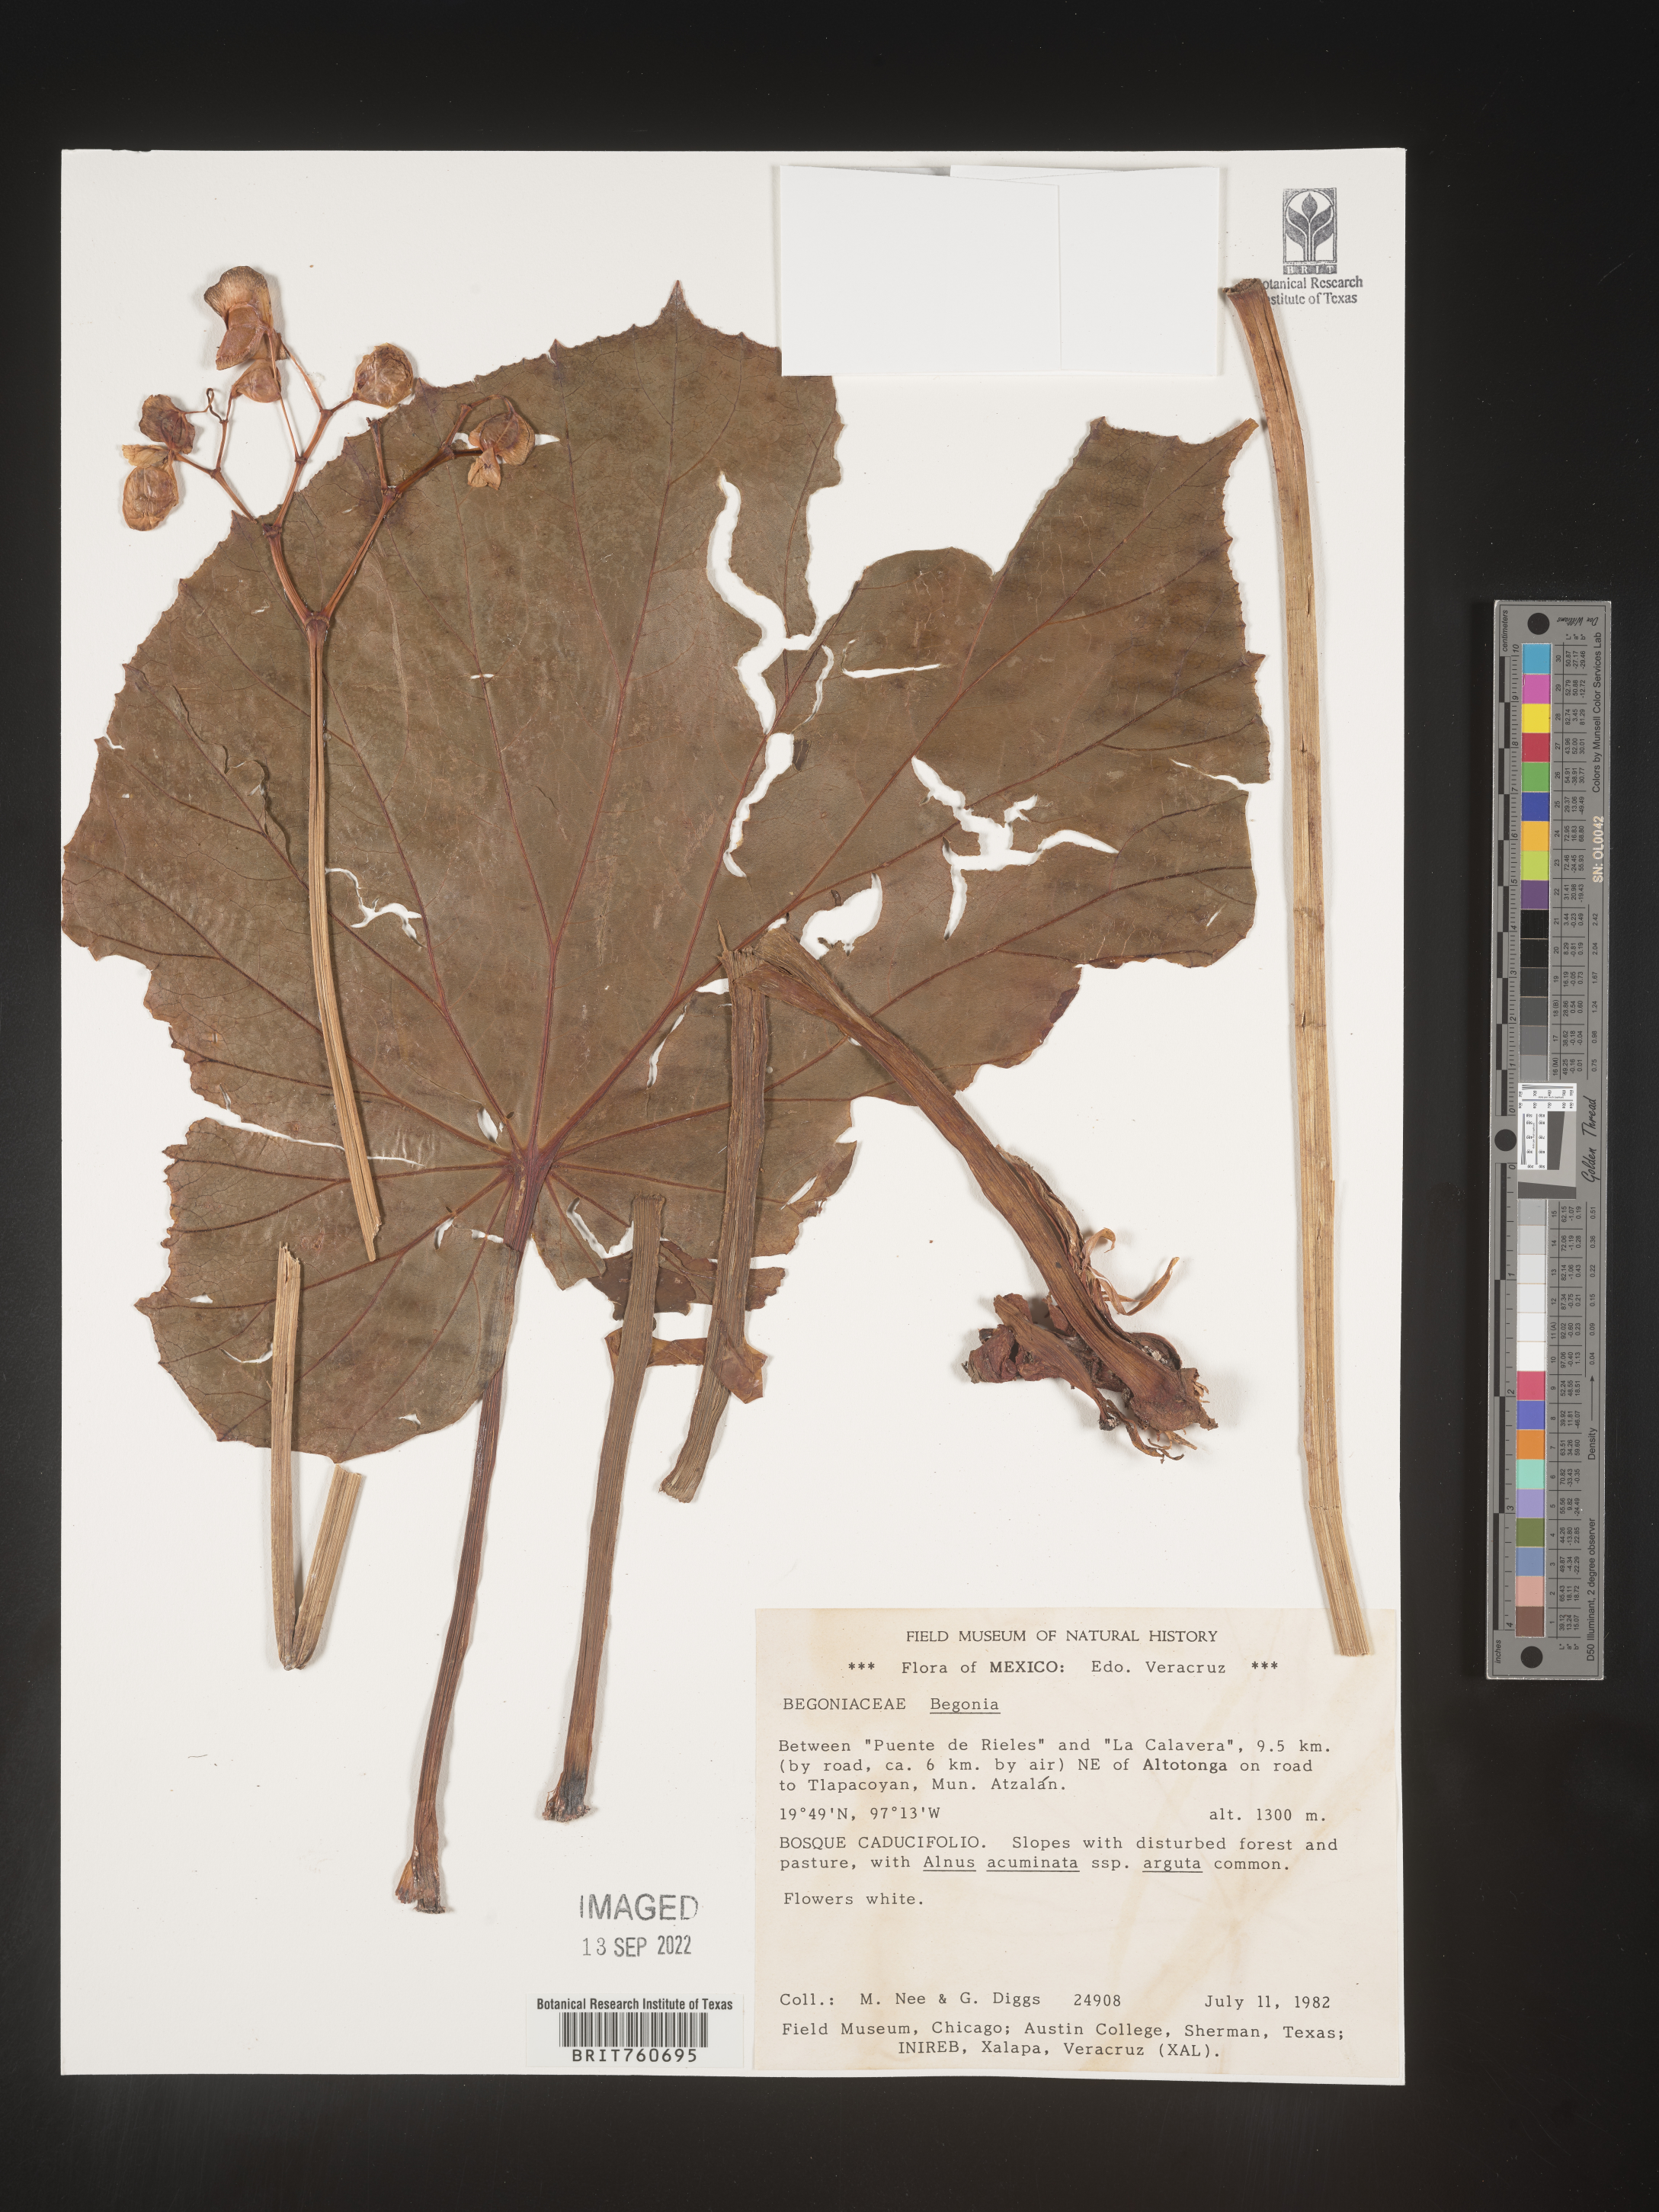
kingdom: Plantae
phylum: Tracheophyta
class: Magnoliopsida
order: Cucurbitales
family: Begoniaceae
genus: Begonia
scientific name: Begonia
